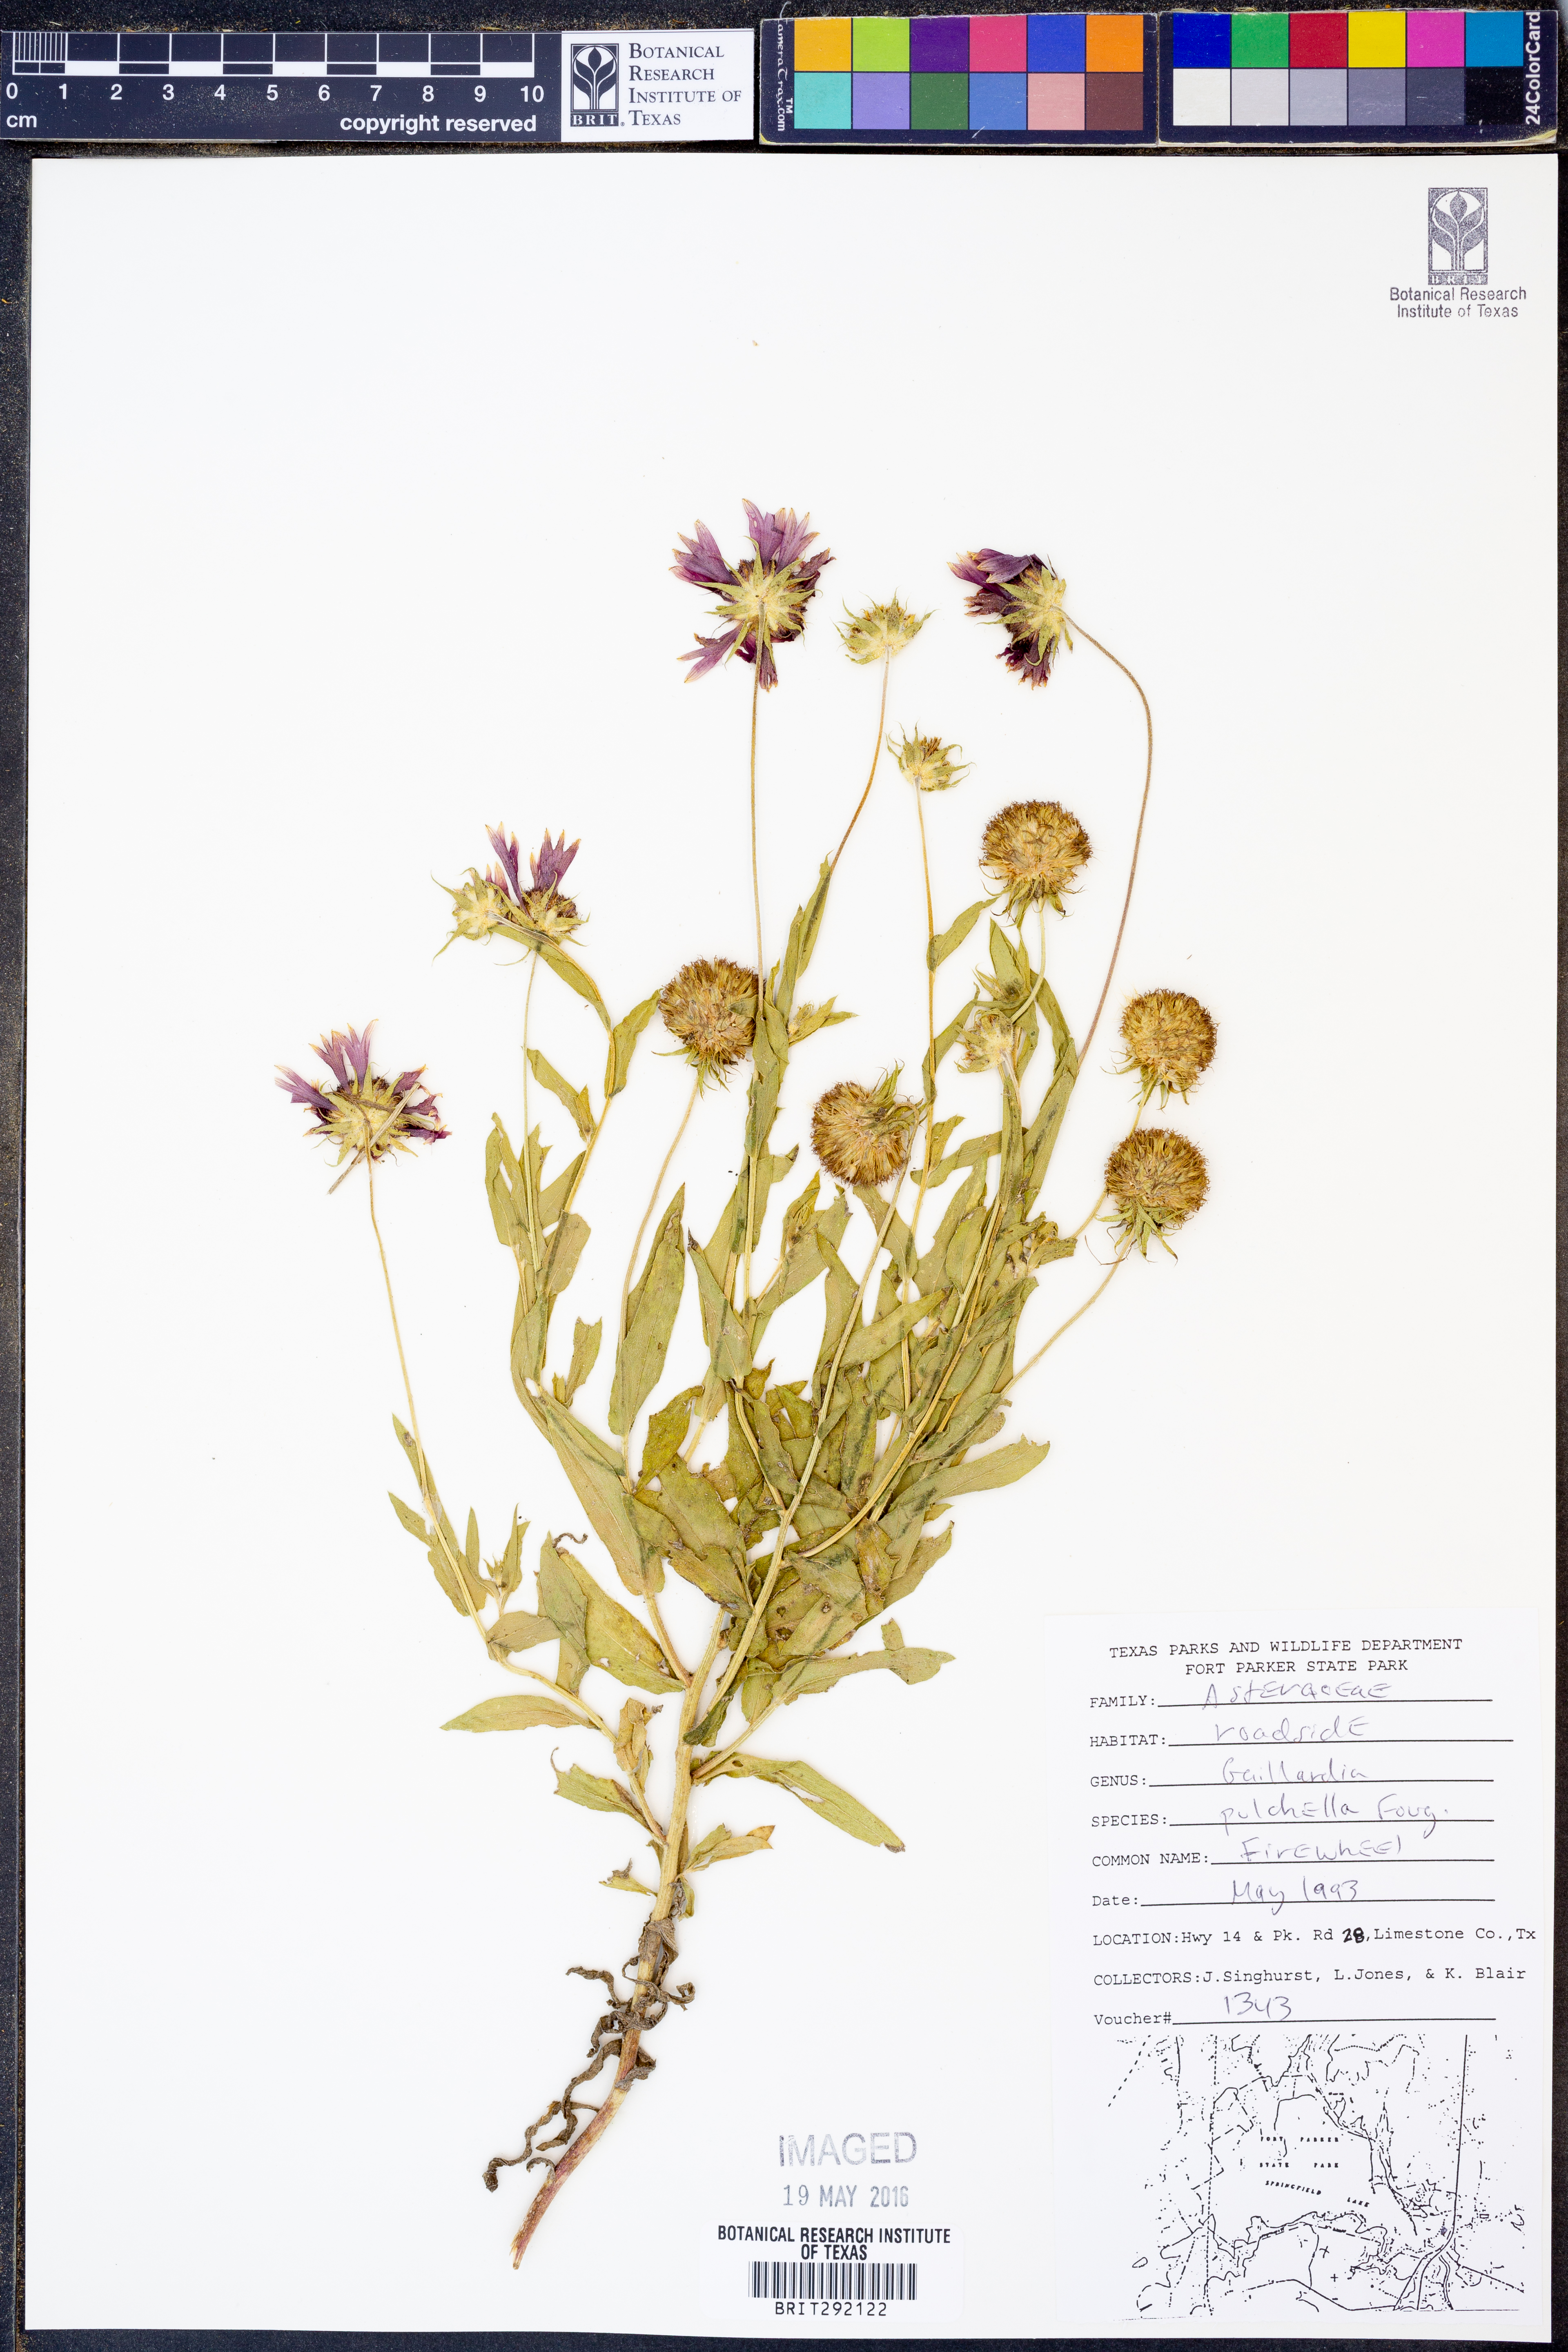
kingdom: Plantae
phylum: Tracheophyta
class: Magnoliopsida
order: Asterales
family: Asteraceae
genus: Gaillardia
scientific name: Gaillardia pulchella
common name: Firewheel
